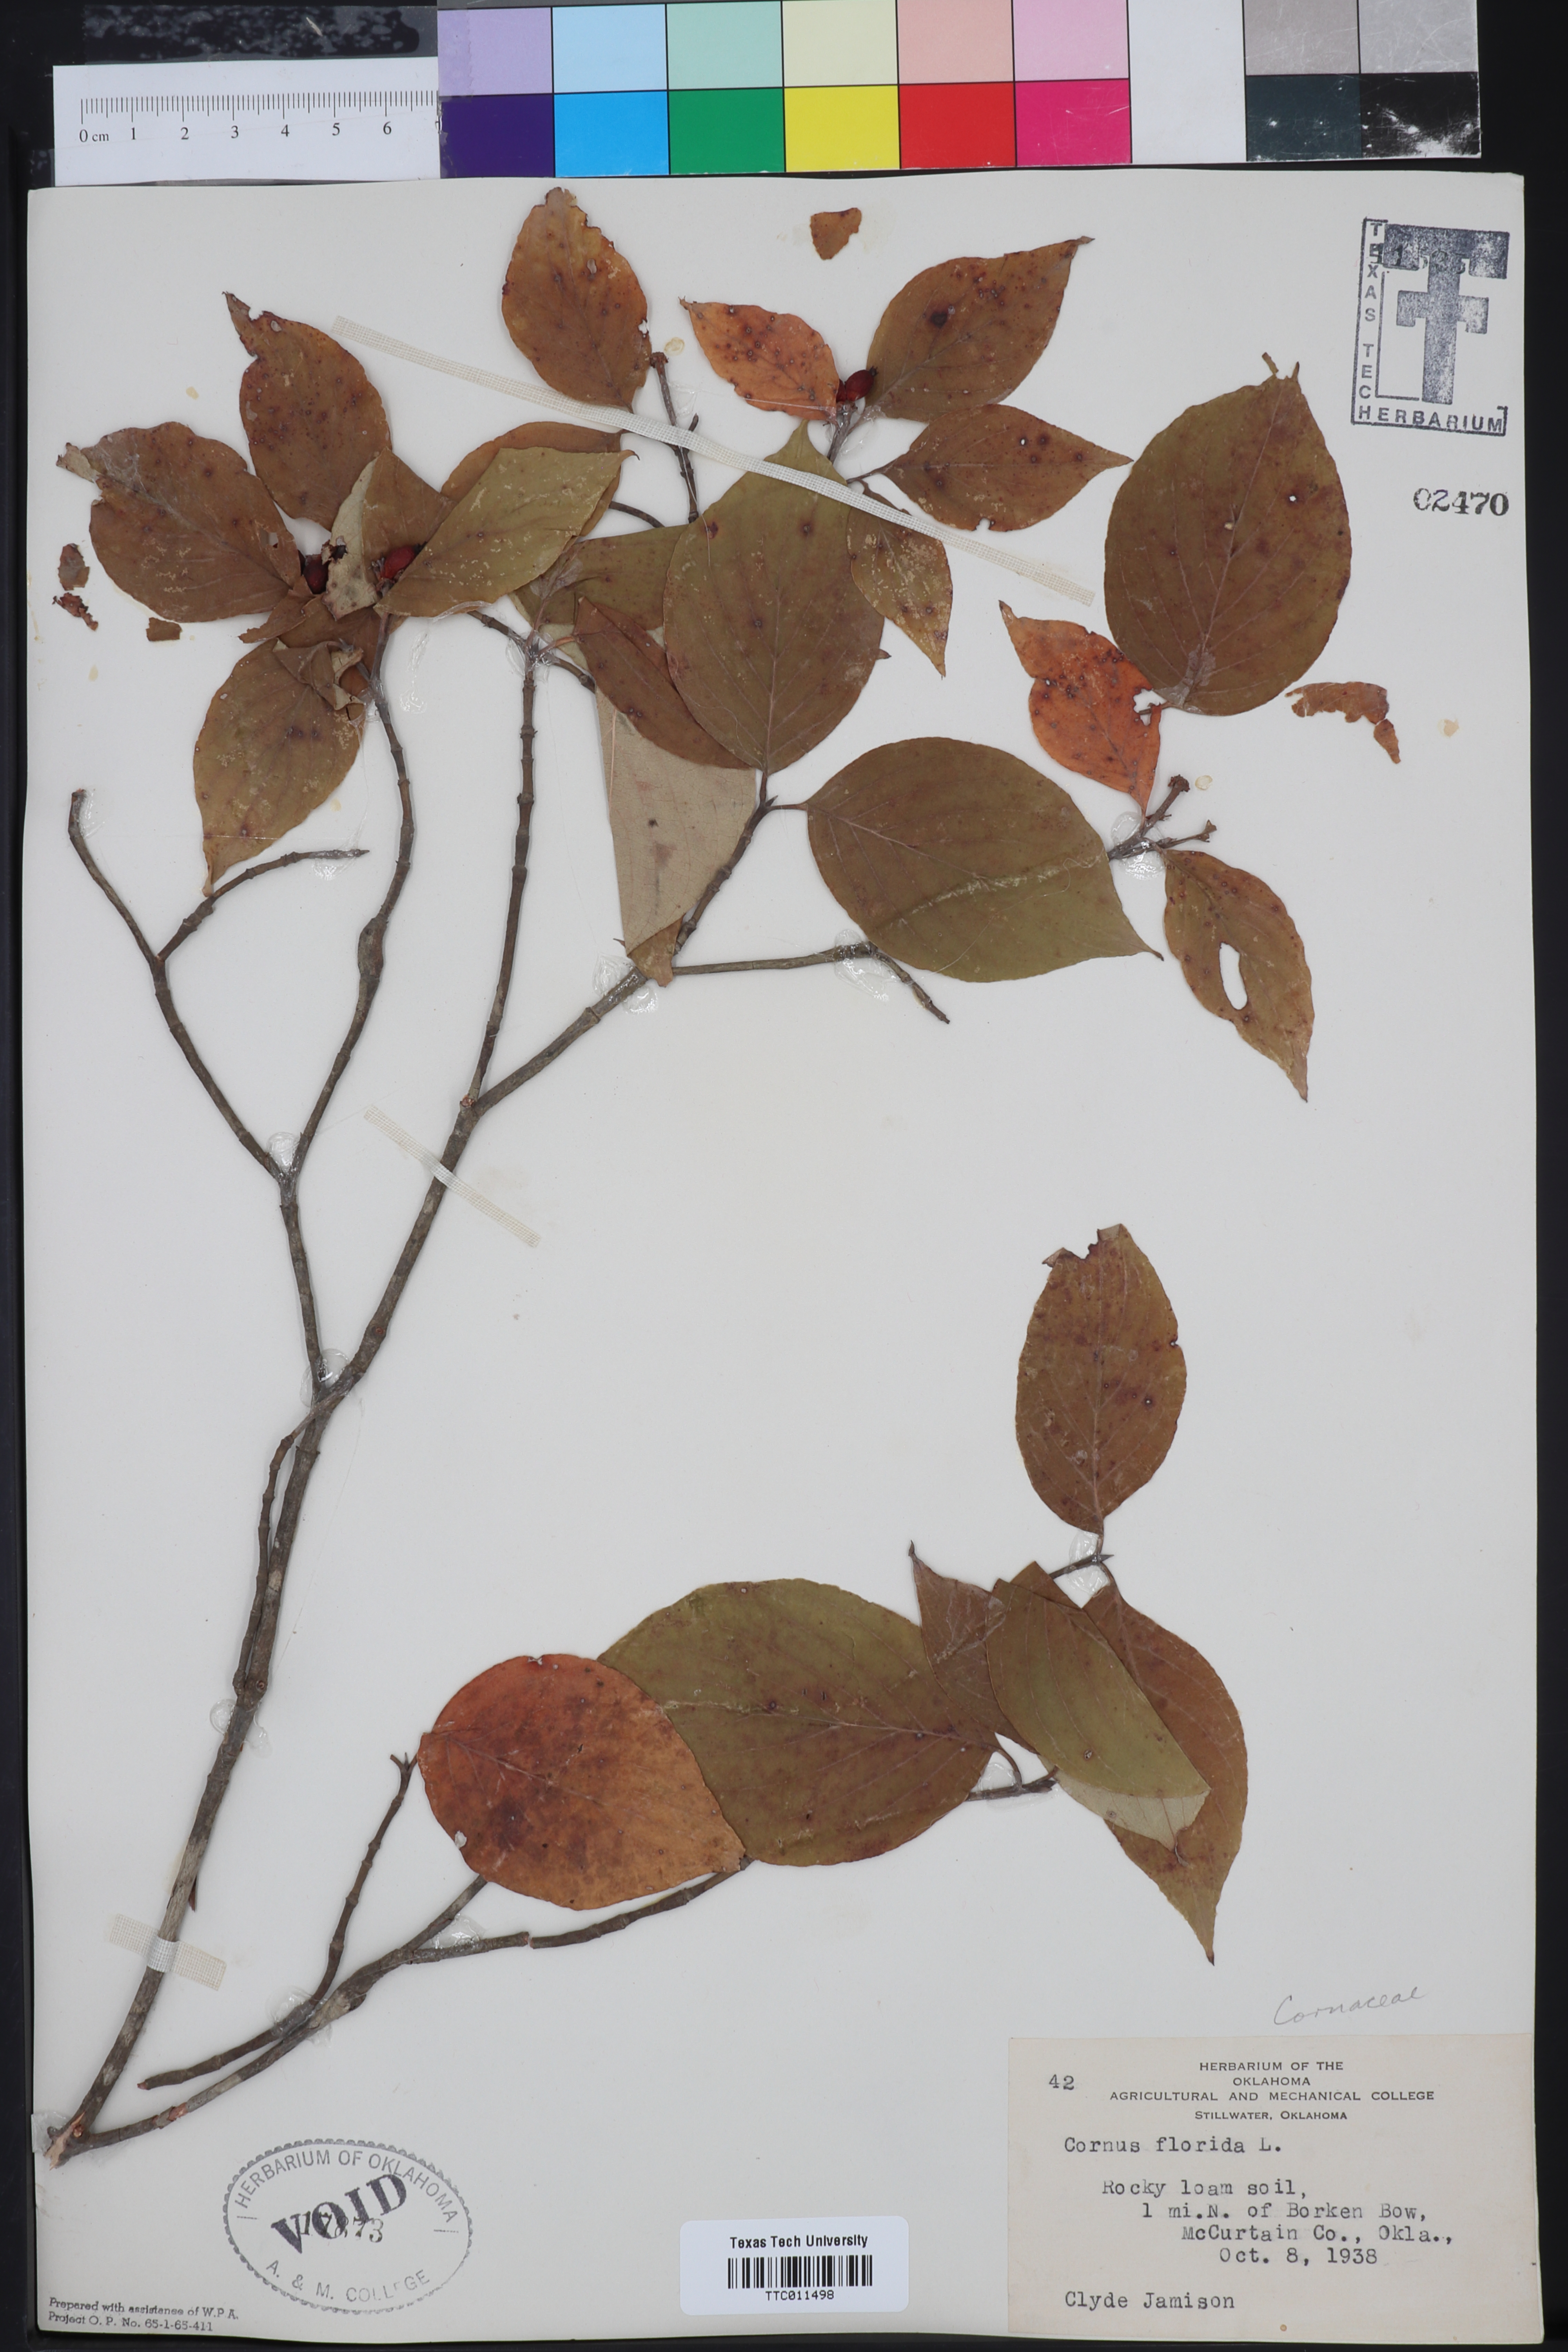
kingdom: Plantae
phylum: Tracheophyta
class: Magnoliopsida
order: Cornales
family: Cornaceae
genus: Cornus
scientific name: Cornus florida
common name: Flowering dogwood
